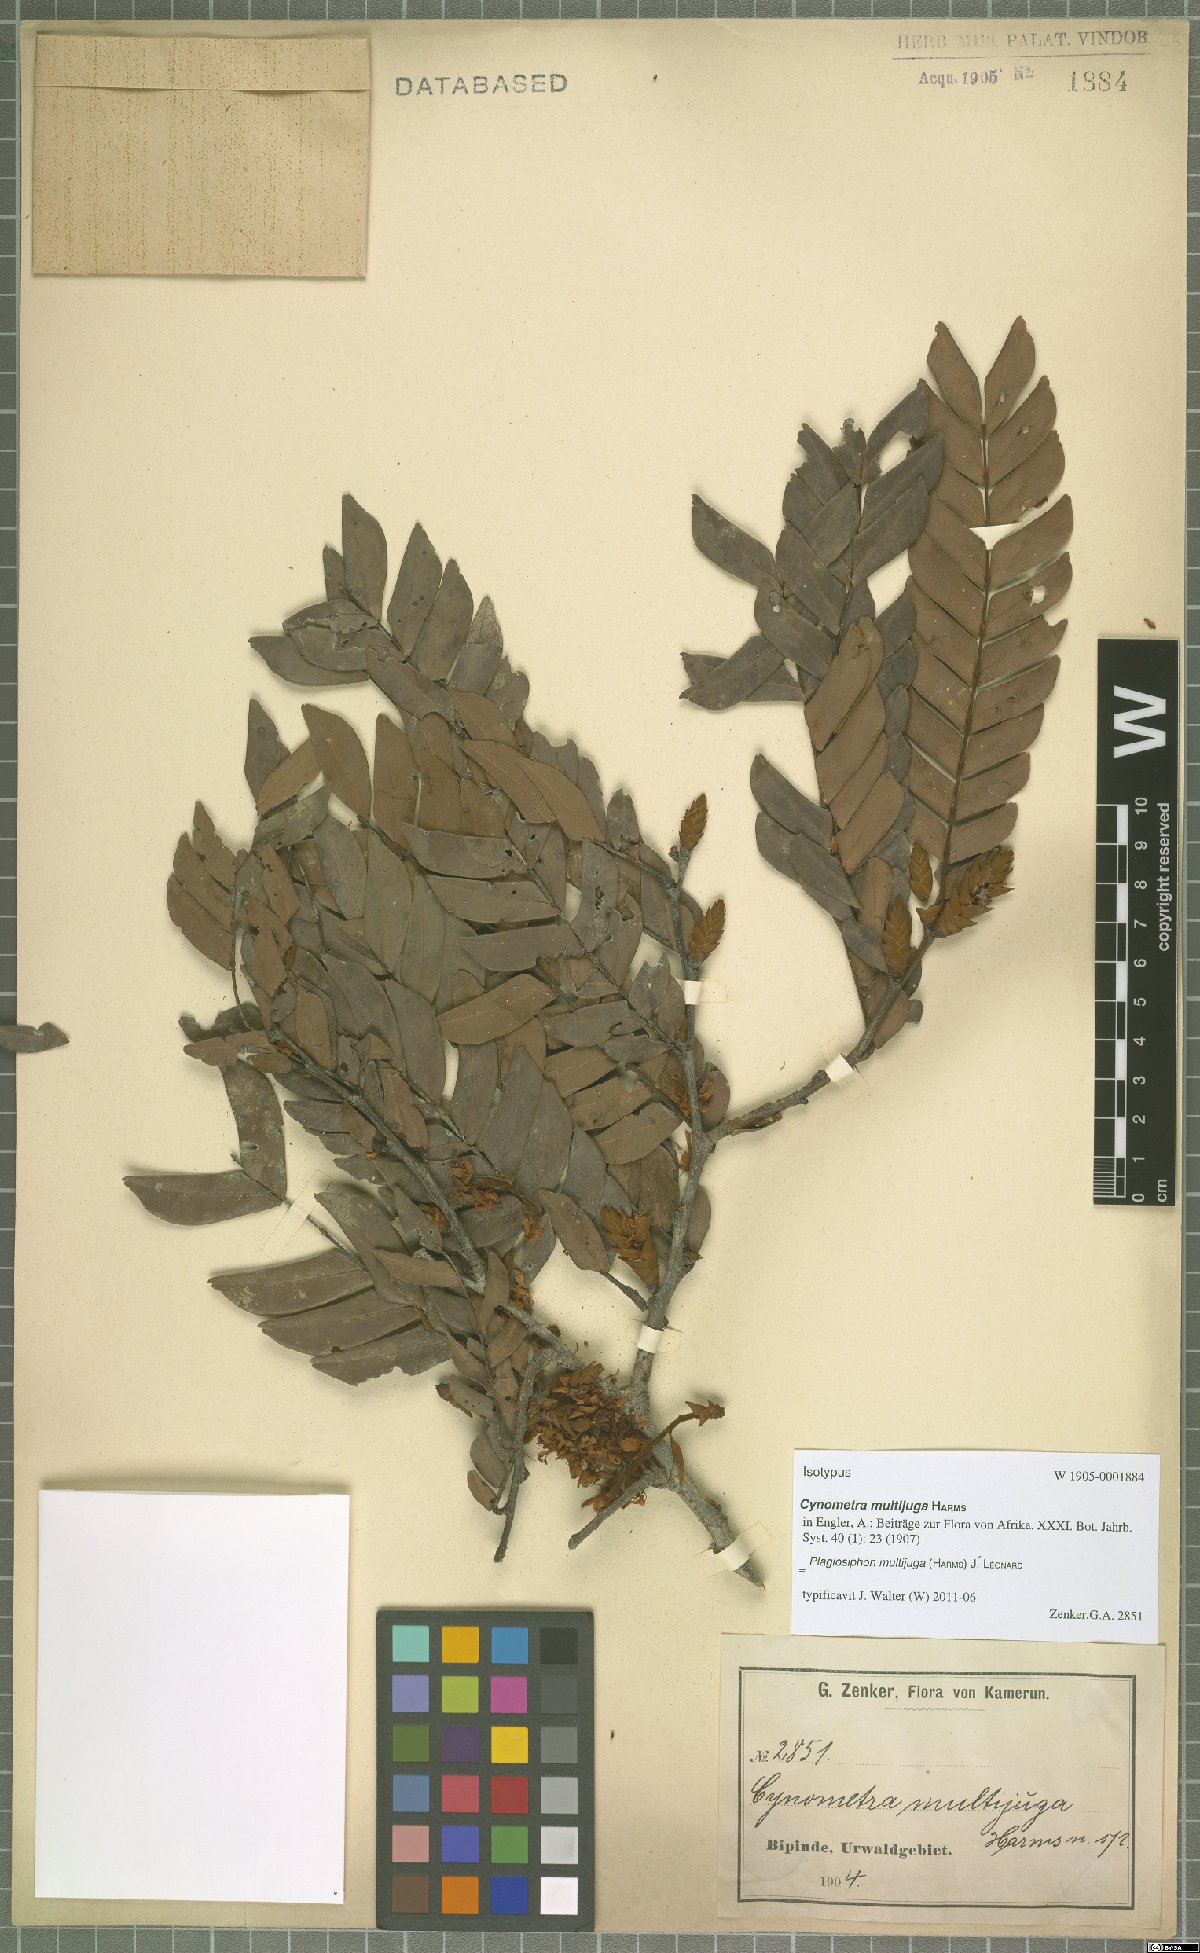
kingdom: Plantae
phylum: Tracheophyta
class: Magnoliopsida
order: Fabales
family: Fabaceae
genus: Plagiosiphon
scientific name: Plagiosiphon multijugus
